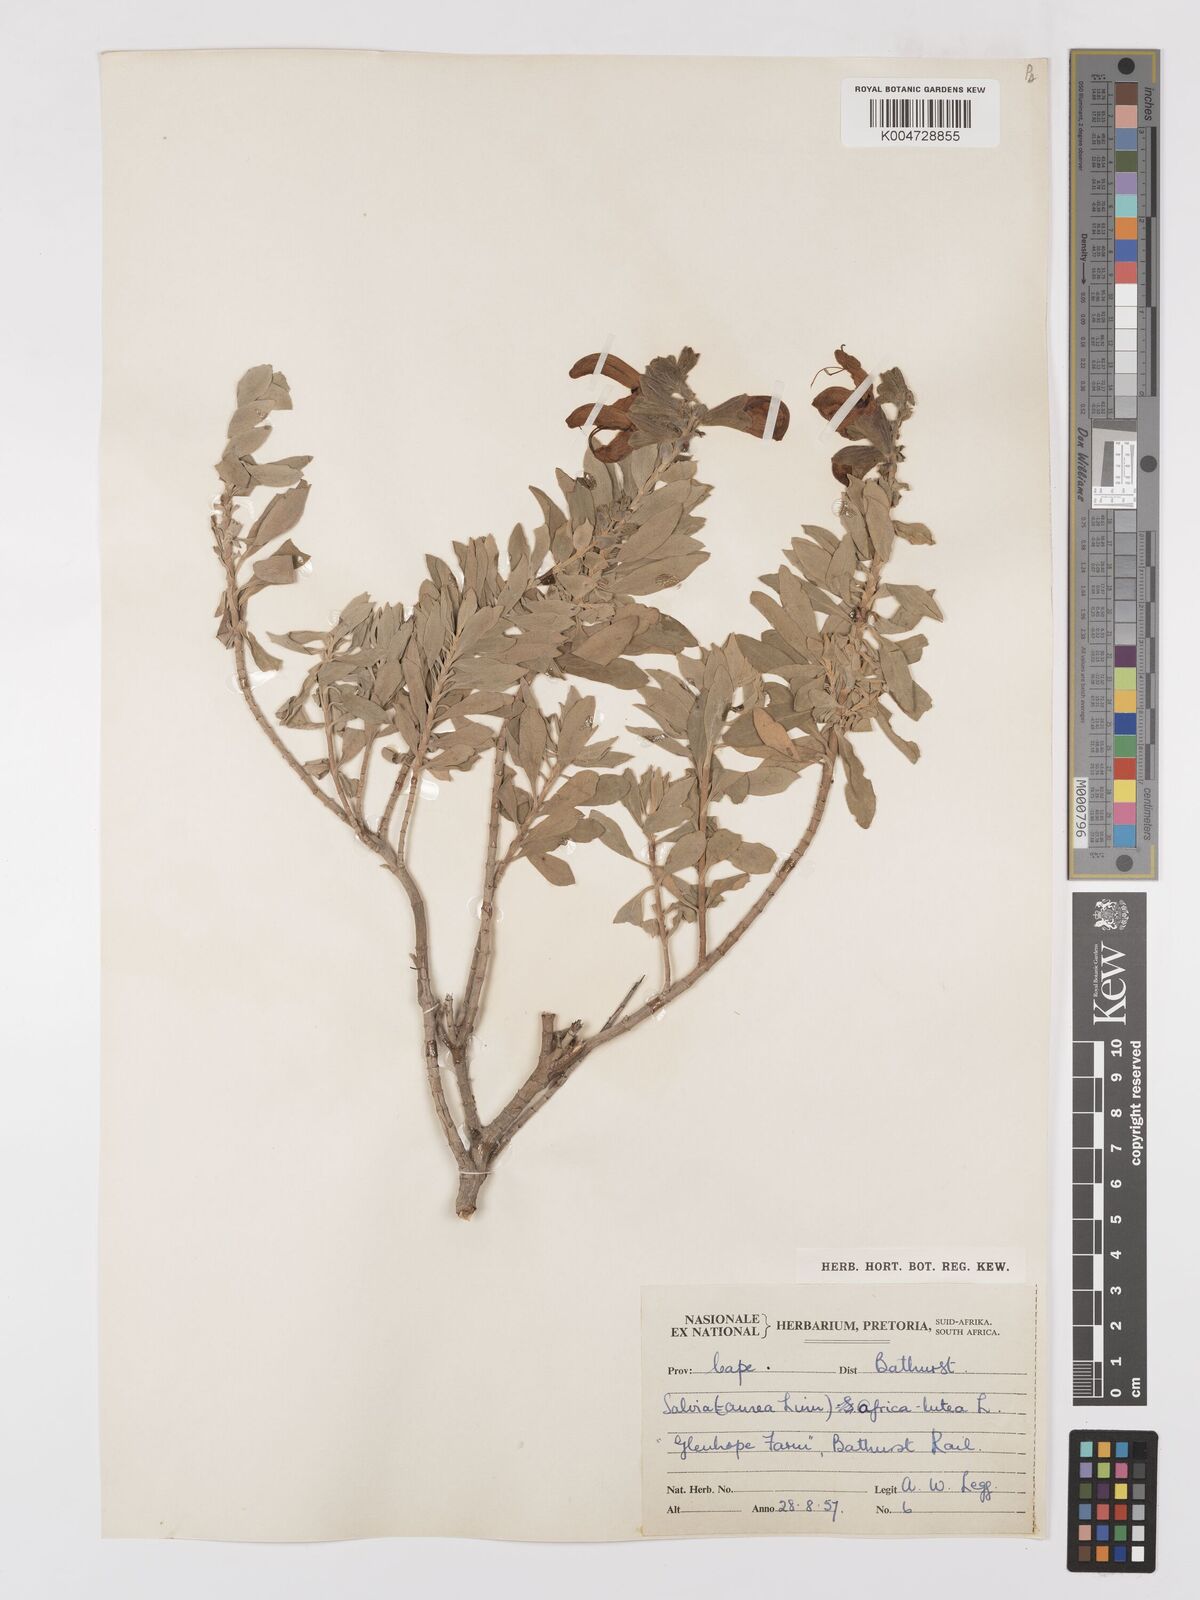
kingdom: Plantae
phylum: Tracheophyta
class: Magnoliopsida
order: Lamiales
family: Lamiaceae
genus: Salvia
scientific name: Salvia aurea
